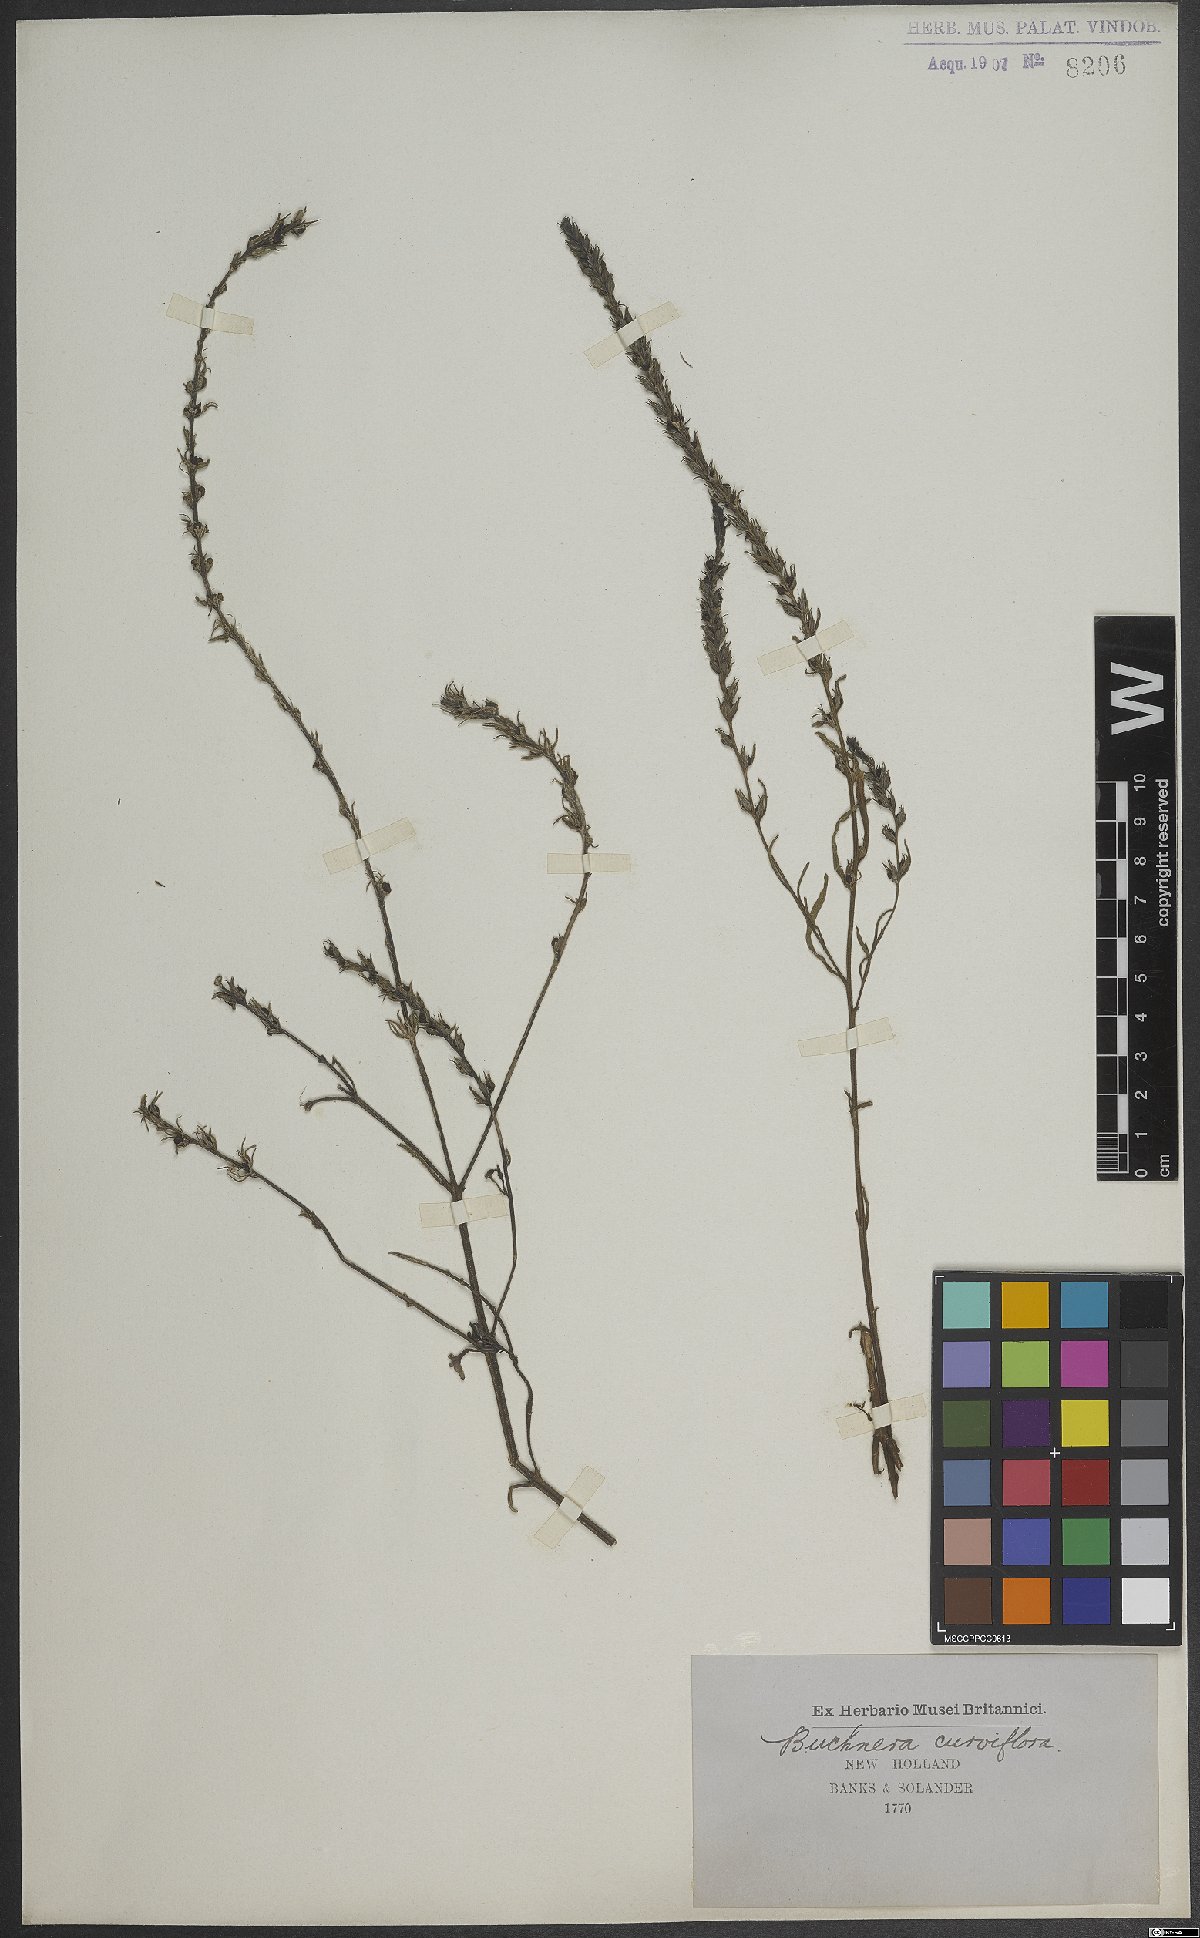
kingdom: Plantae
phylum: Tracheophyta
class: Magnoliopsida
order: Lamiales
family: Orobanchaceae
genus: Striga
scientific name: Striga curviflora
